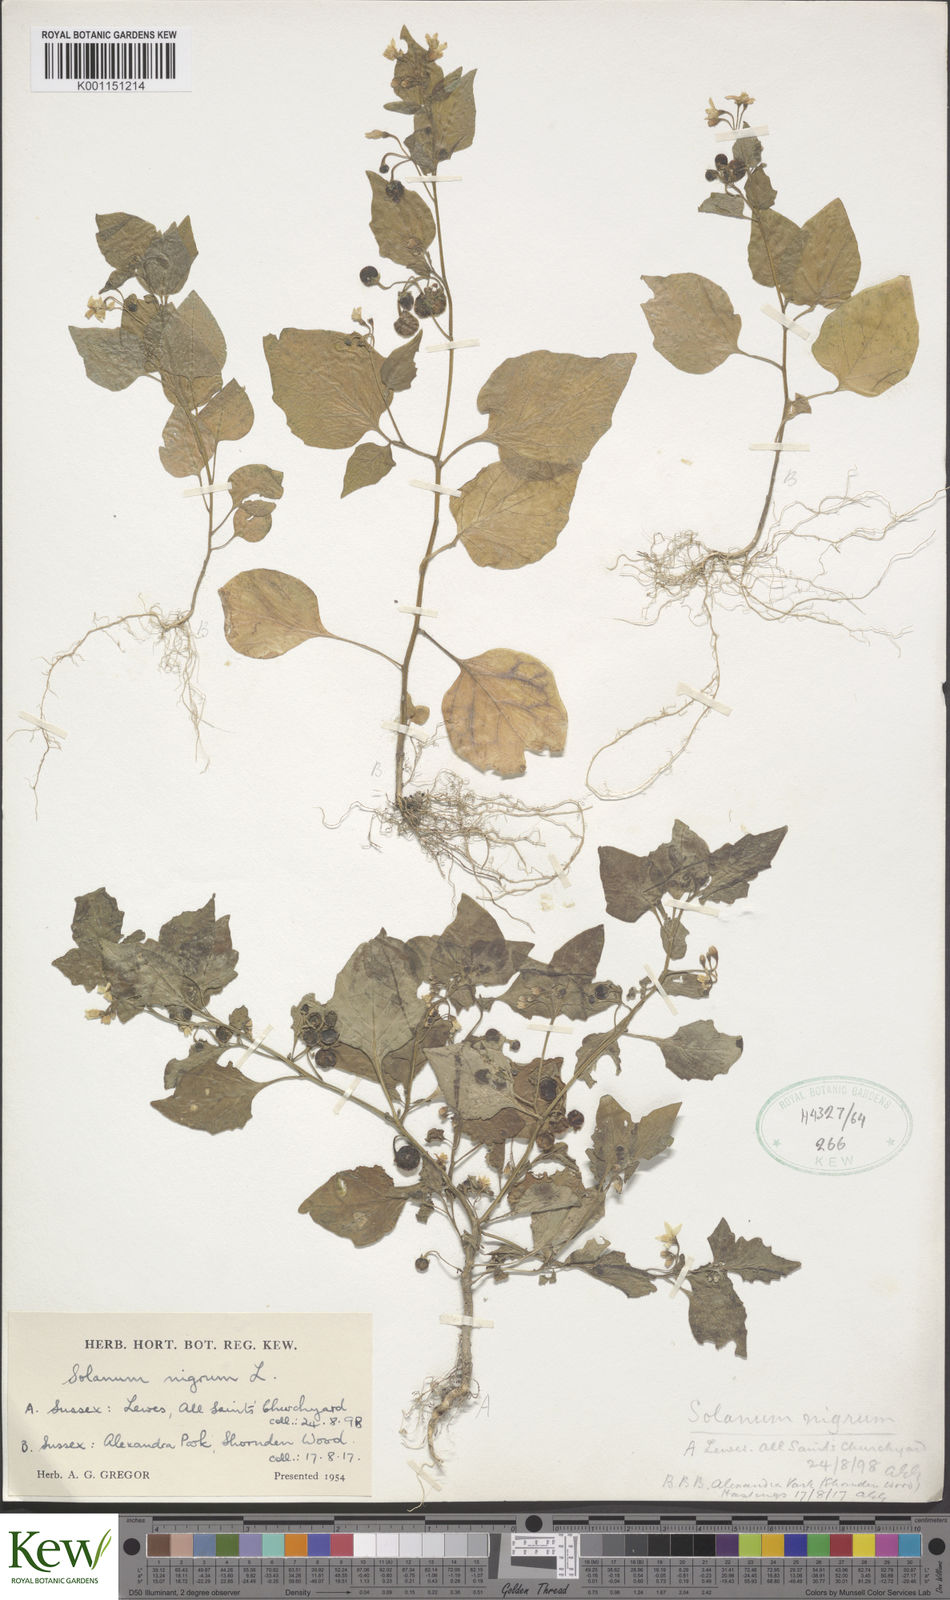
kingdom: Plantae
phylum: Tracheophyta
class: Magnoliopsida
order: Solanales
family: Solanaceae
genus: Solanum
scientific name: Solanum nigrum
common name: Black nightshade
